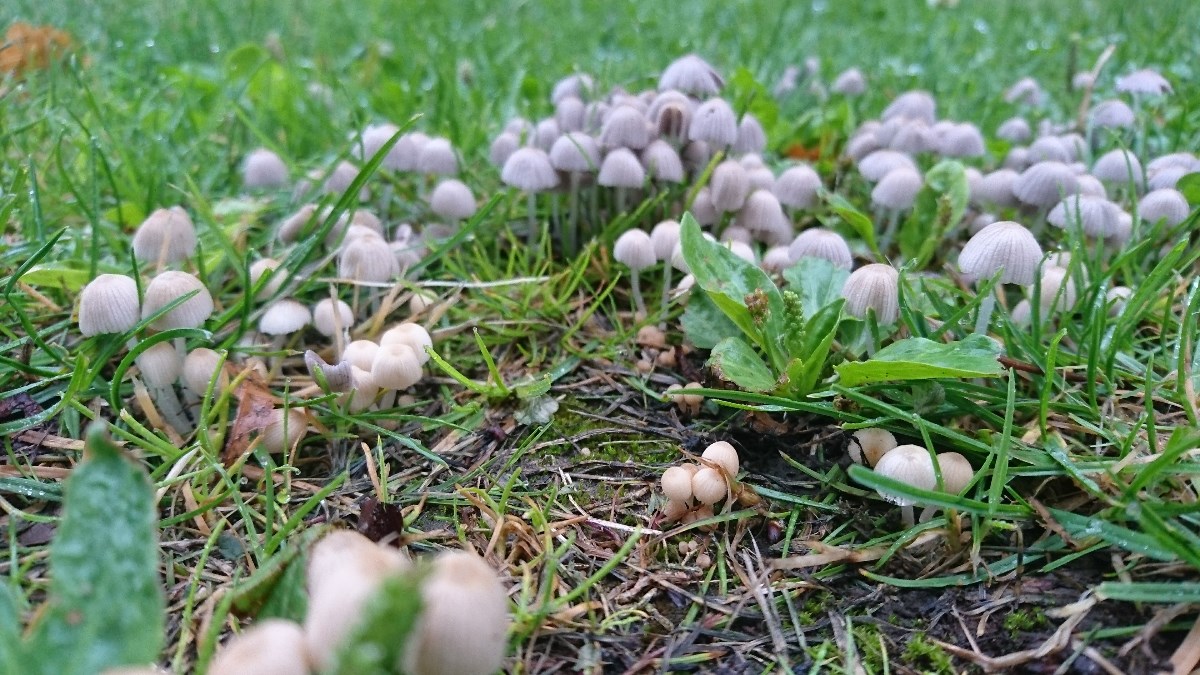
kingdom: Fungi
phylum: Basidiomycota
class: Agaricomycetes
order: Agaricales
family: Psathyrellaceae
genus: Coprinellus
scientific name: Coprinellus disseminatus
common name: bredsået blækhat
